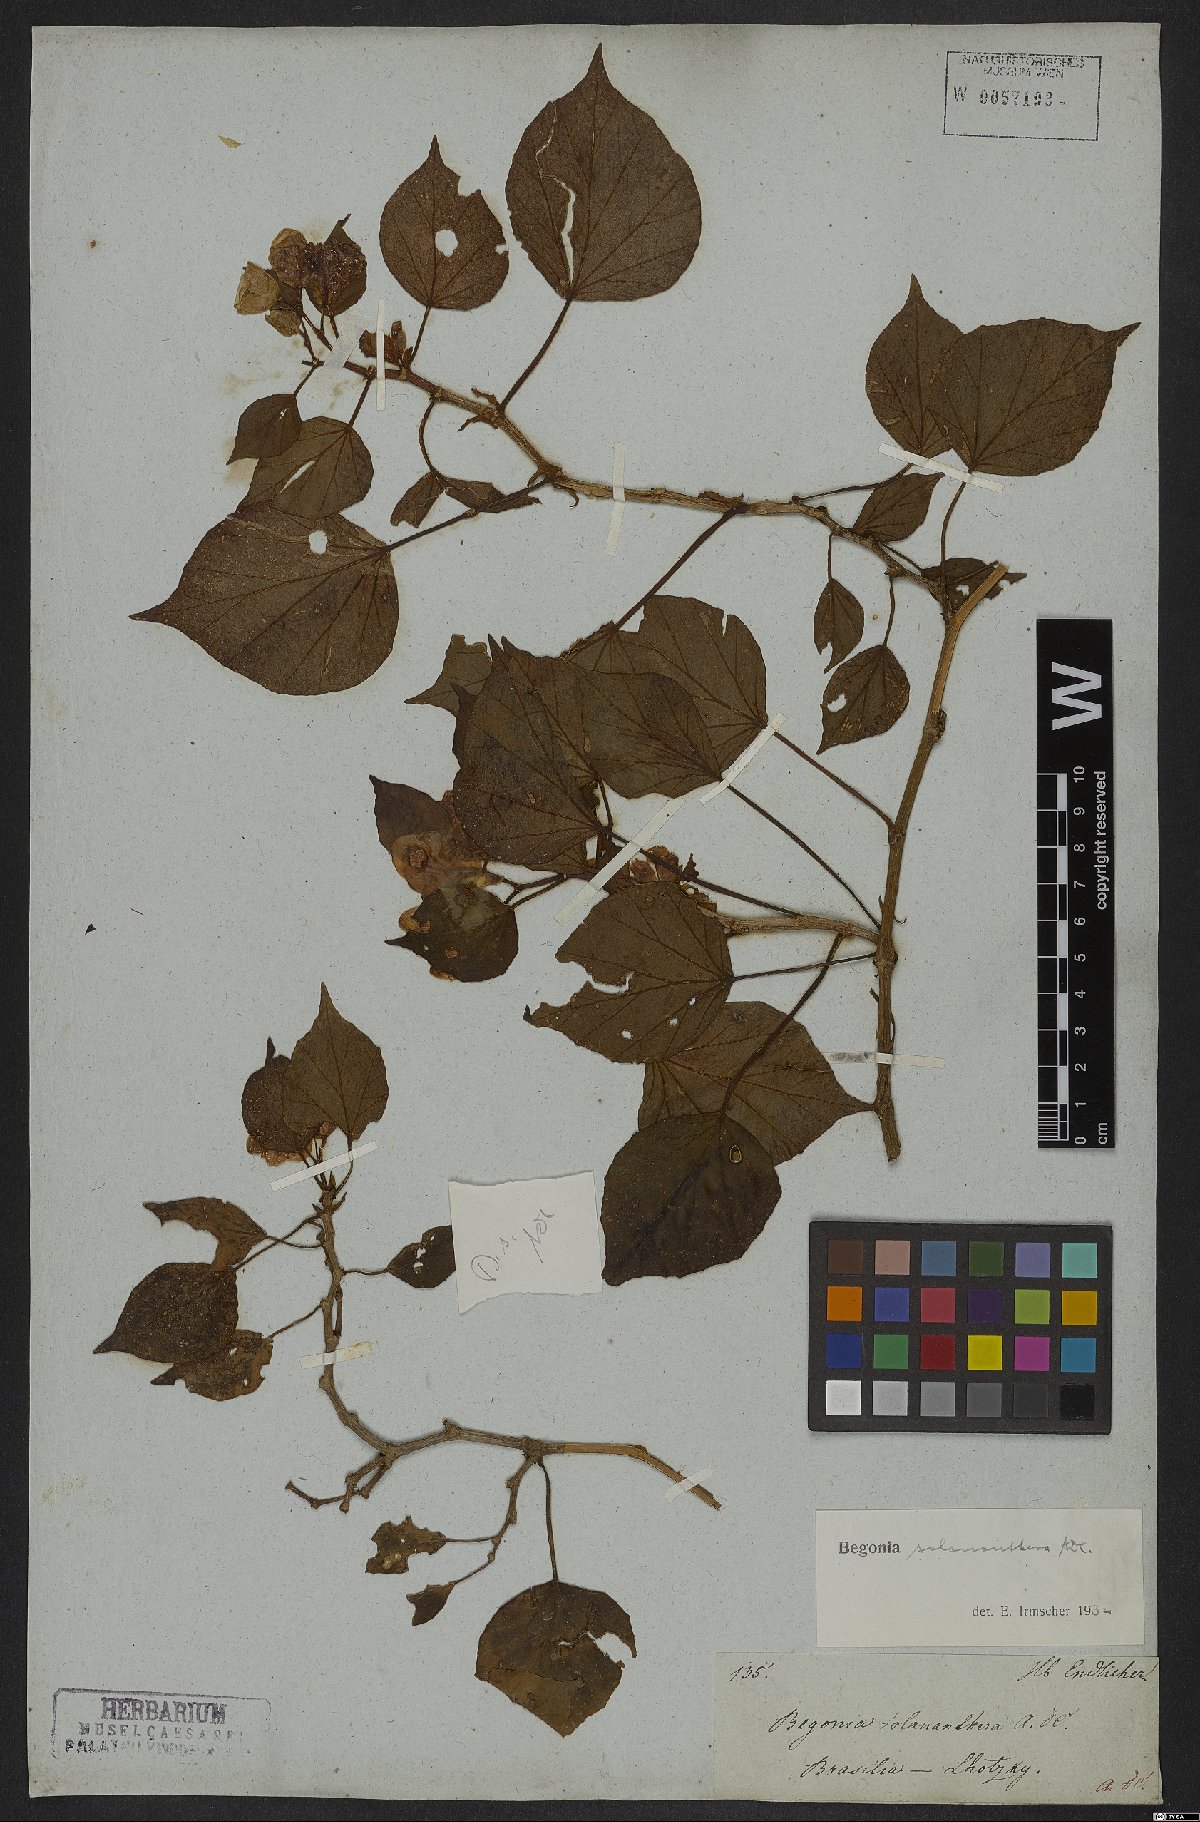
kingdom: Plantae
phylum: Tracheophyta
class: Magnoliopsida
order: Cucurbitales
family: Begoniaceae
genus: Begonia
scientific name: Begonia solananthera
